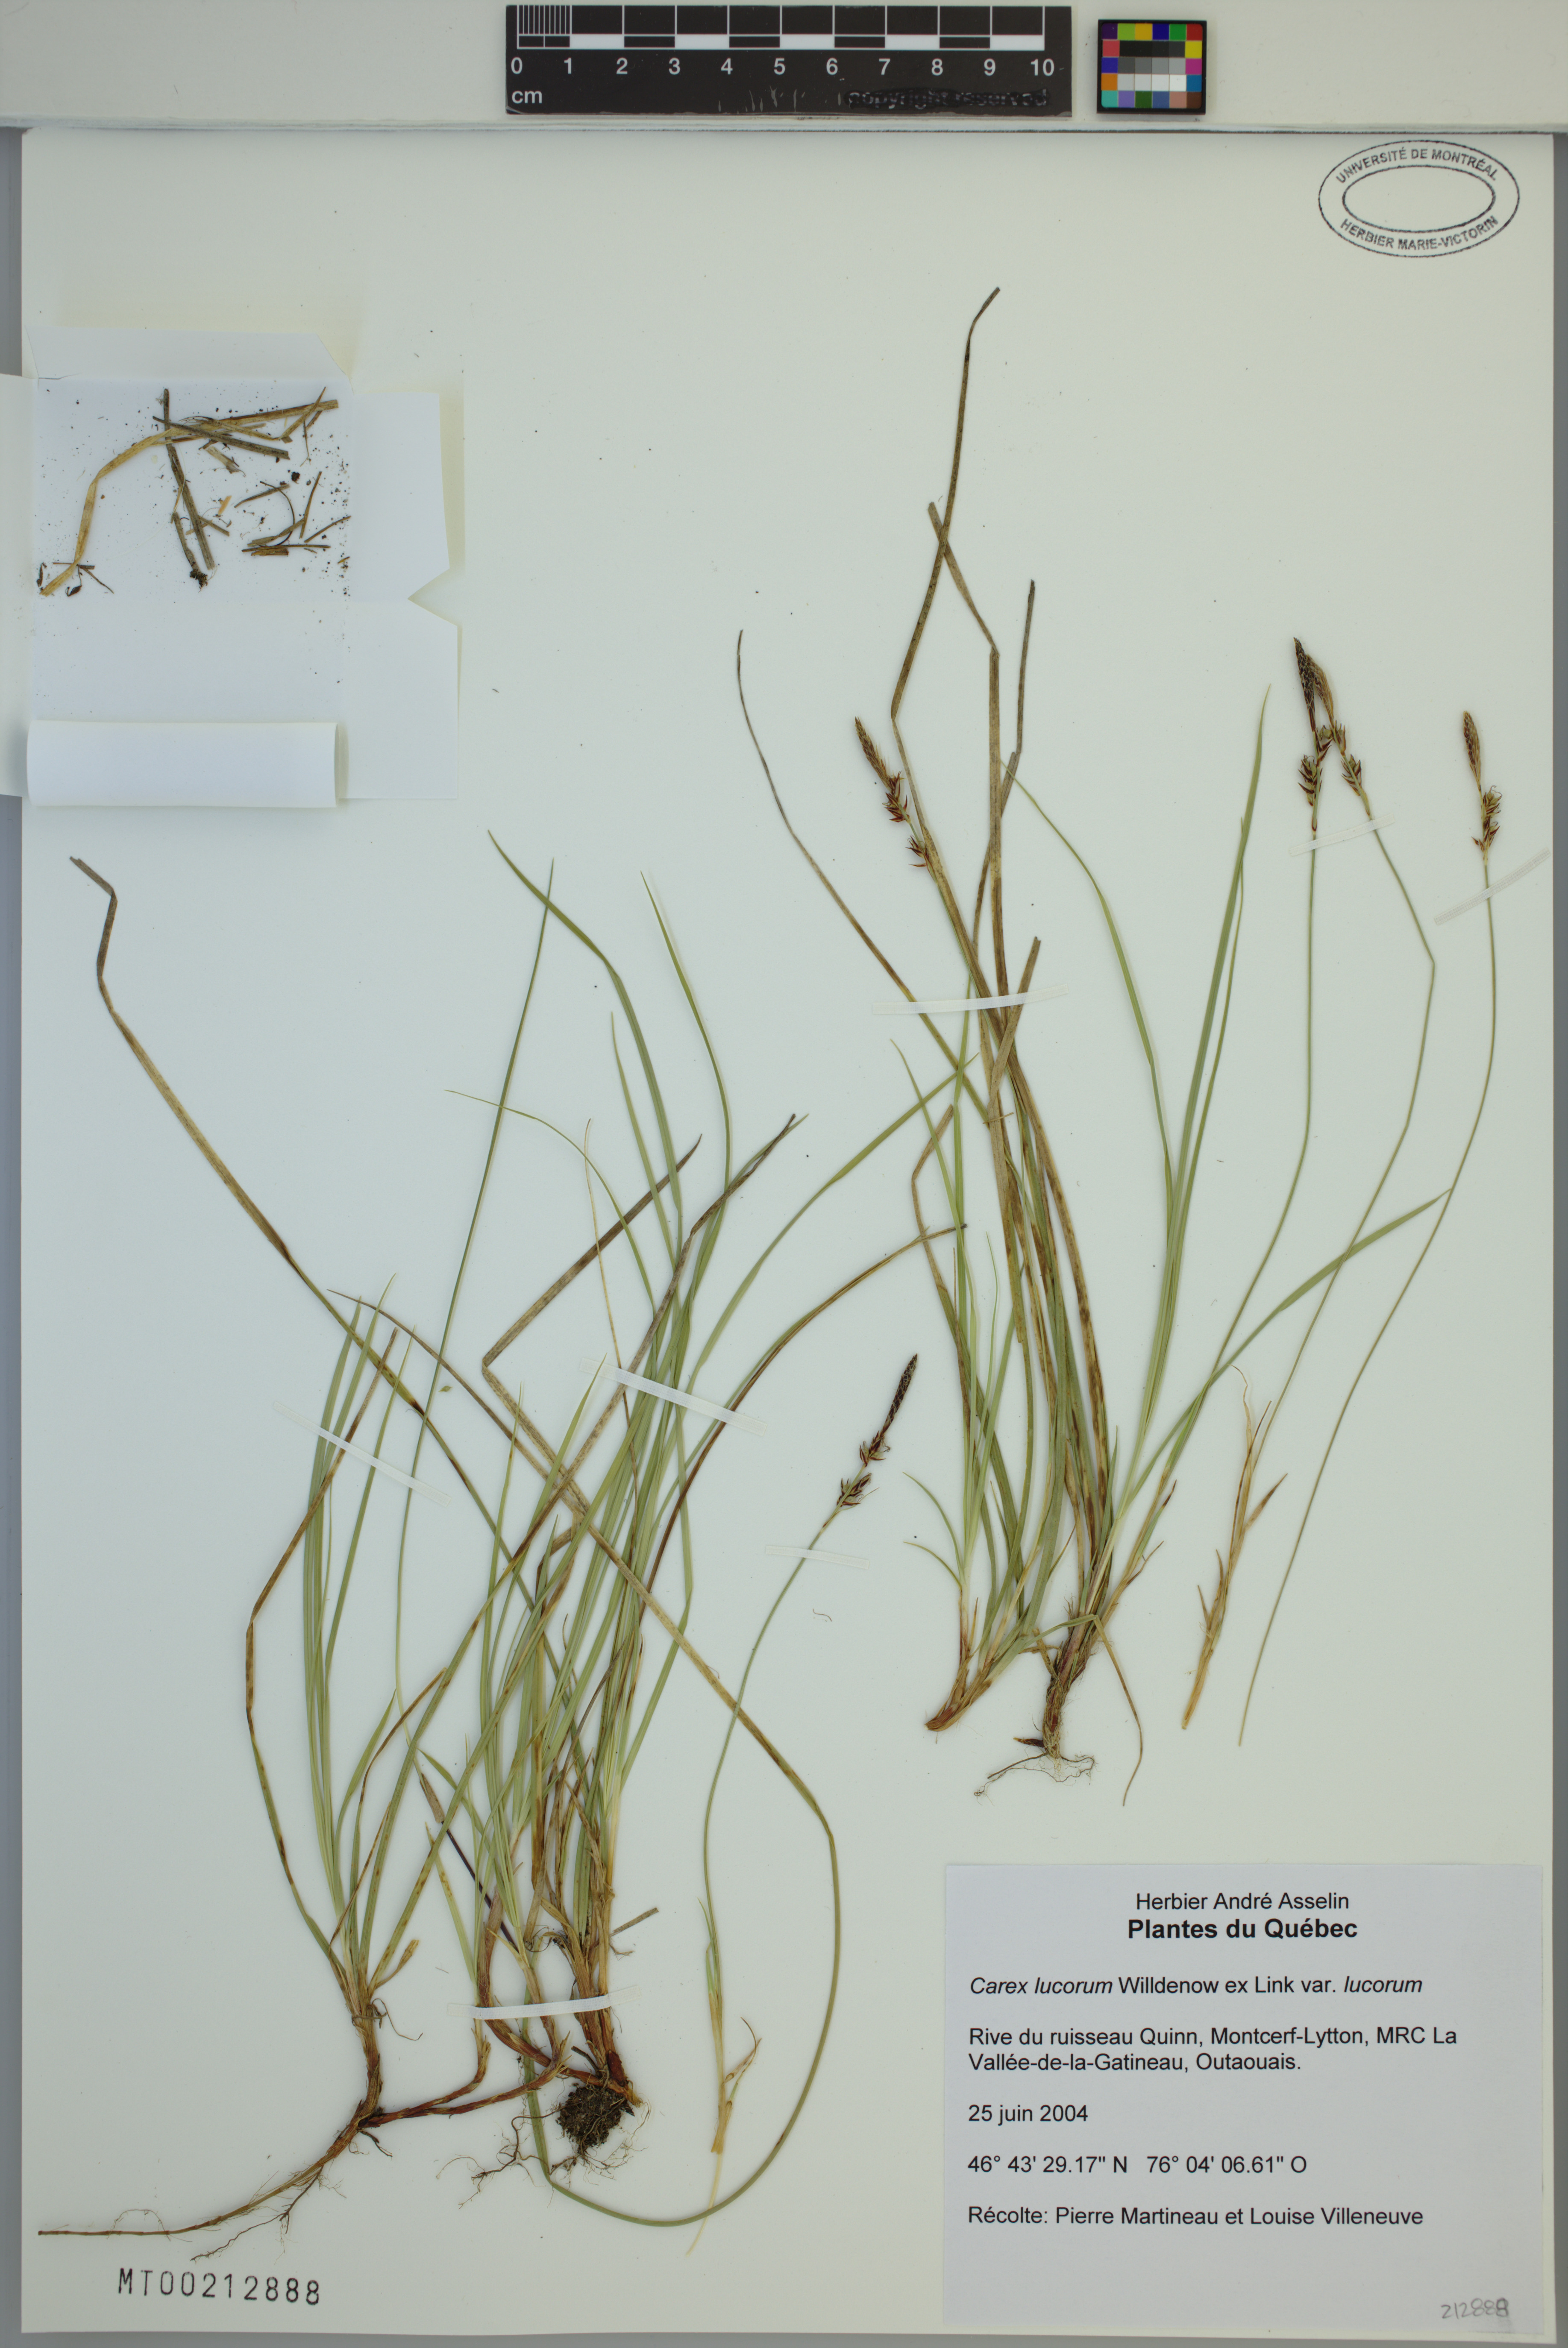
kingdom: Plantae
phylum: Tracheophyta
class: Liliopsida
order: Poales
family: Cyperaceae
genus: Carex
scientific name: Carex lucorum
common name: Blue ridge sedge
